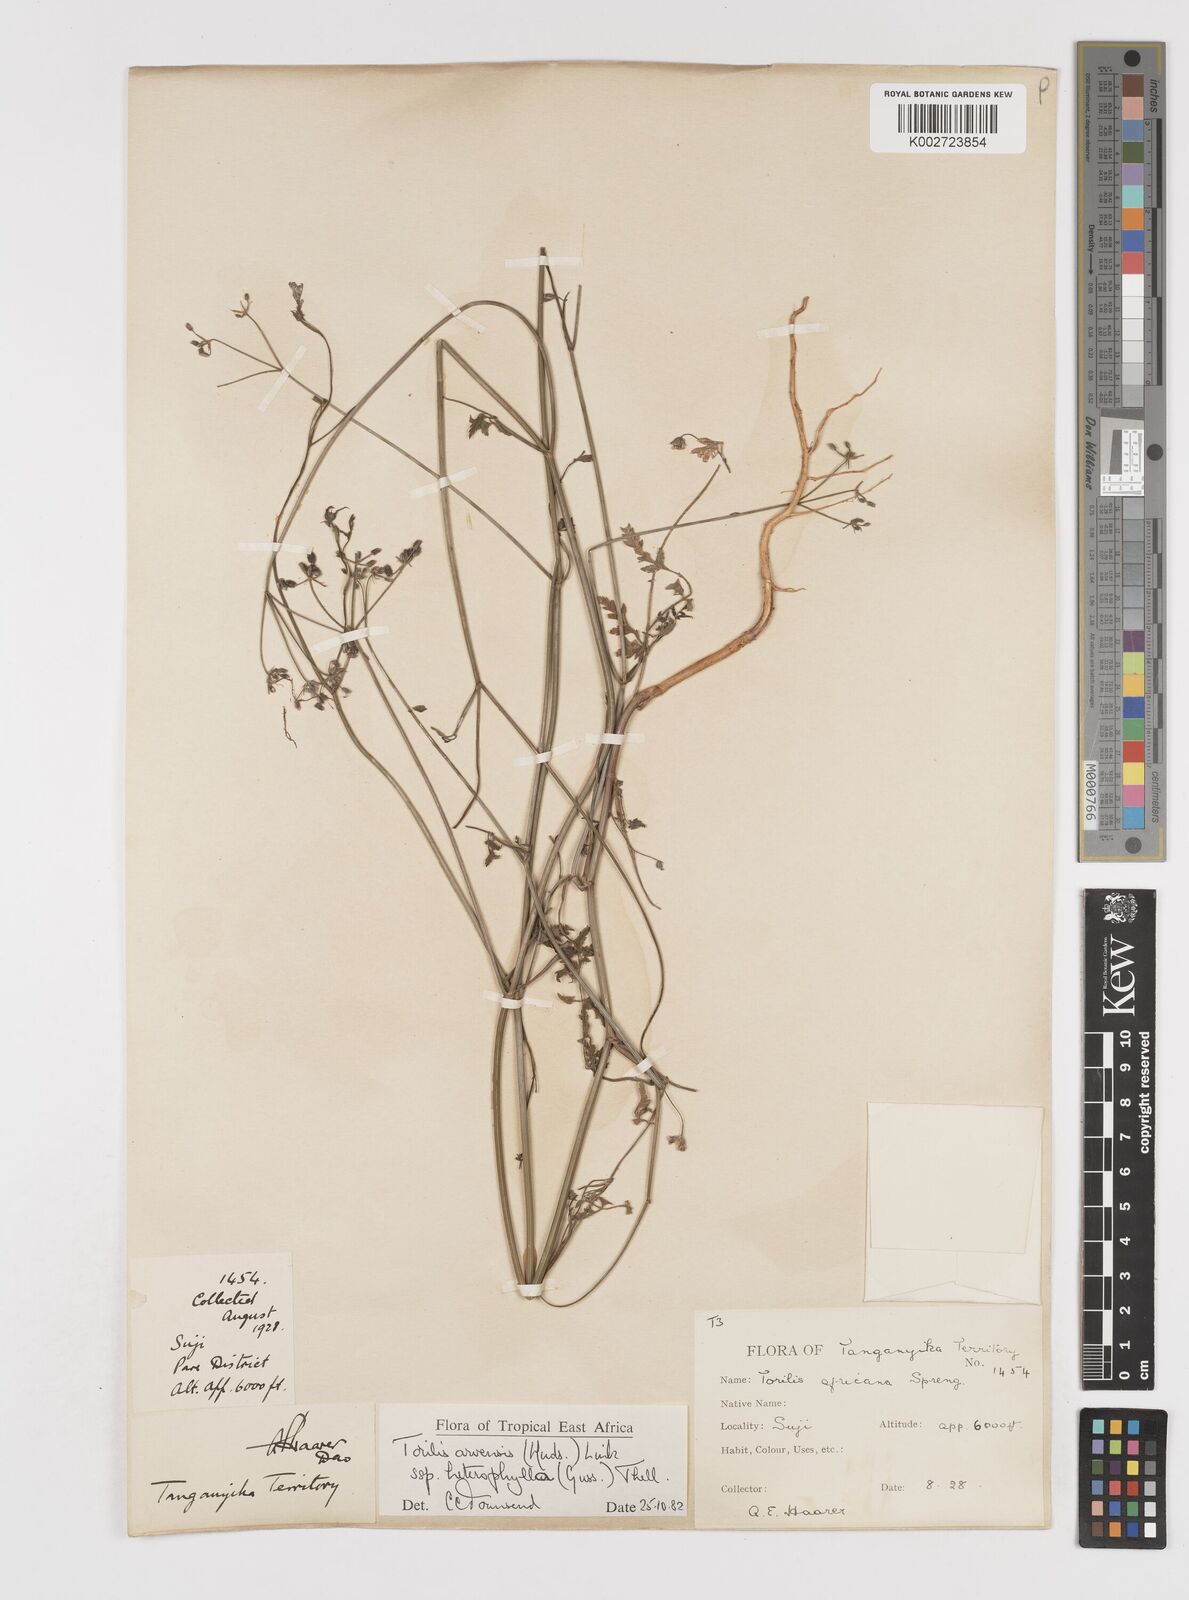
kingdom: Plantae
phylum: Tracheophyta
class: Magnoliopsida
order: Apiales
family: Apiaceae
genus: Torilis
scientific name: Torilis arvensis
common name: Spreading hedge-parsley
